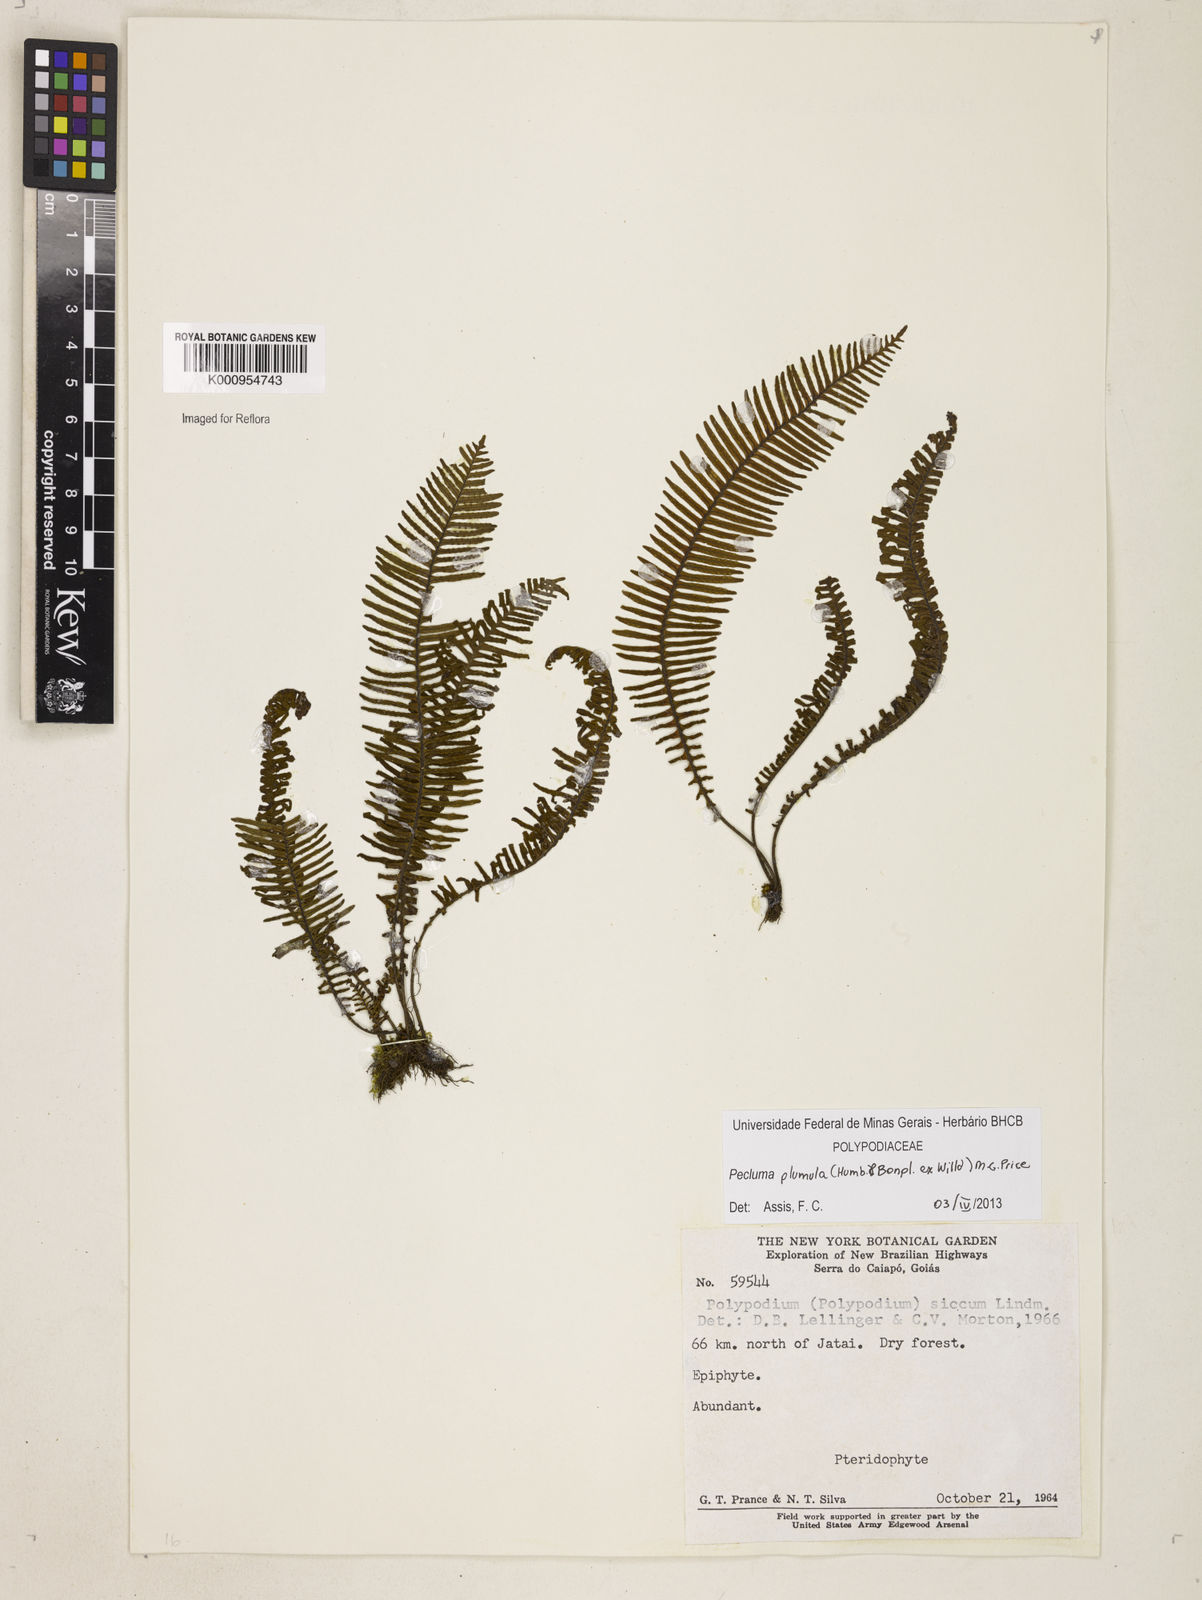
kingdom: Plantae
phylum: Tracheophyta
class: Polypodiopsida
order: Polypodiales
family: Polypodiaceae
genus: Pecluma
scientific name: Pecluma plumula
